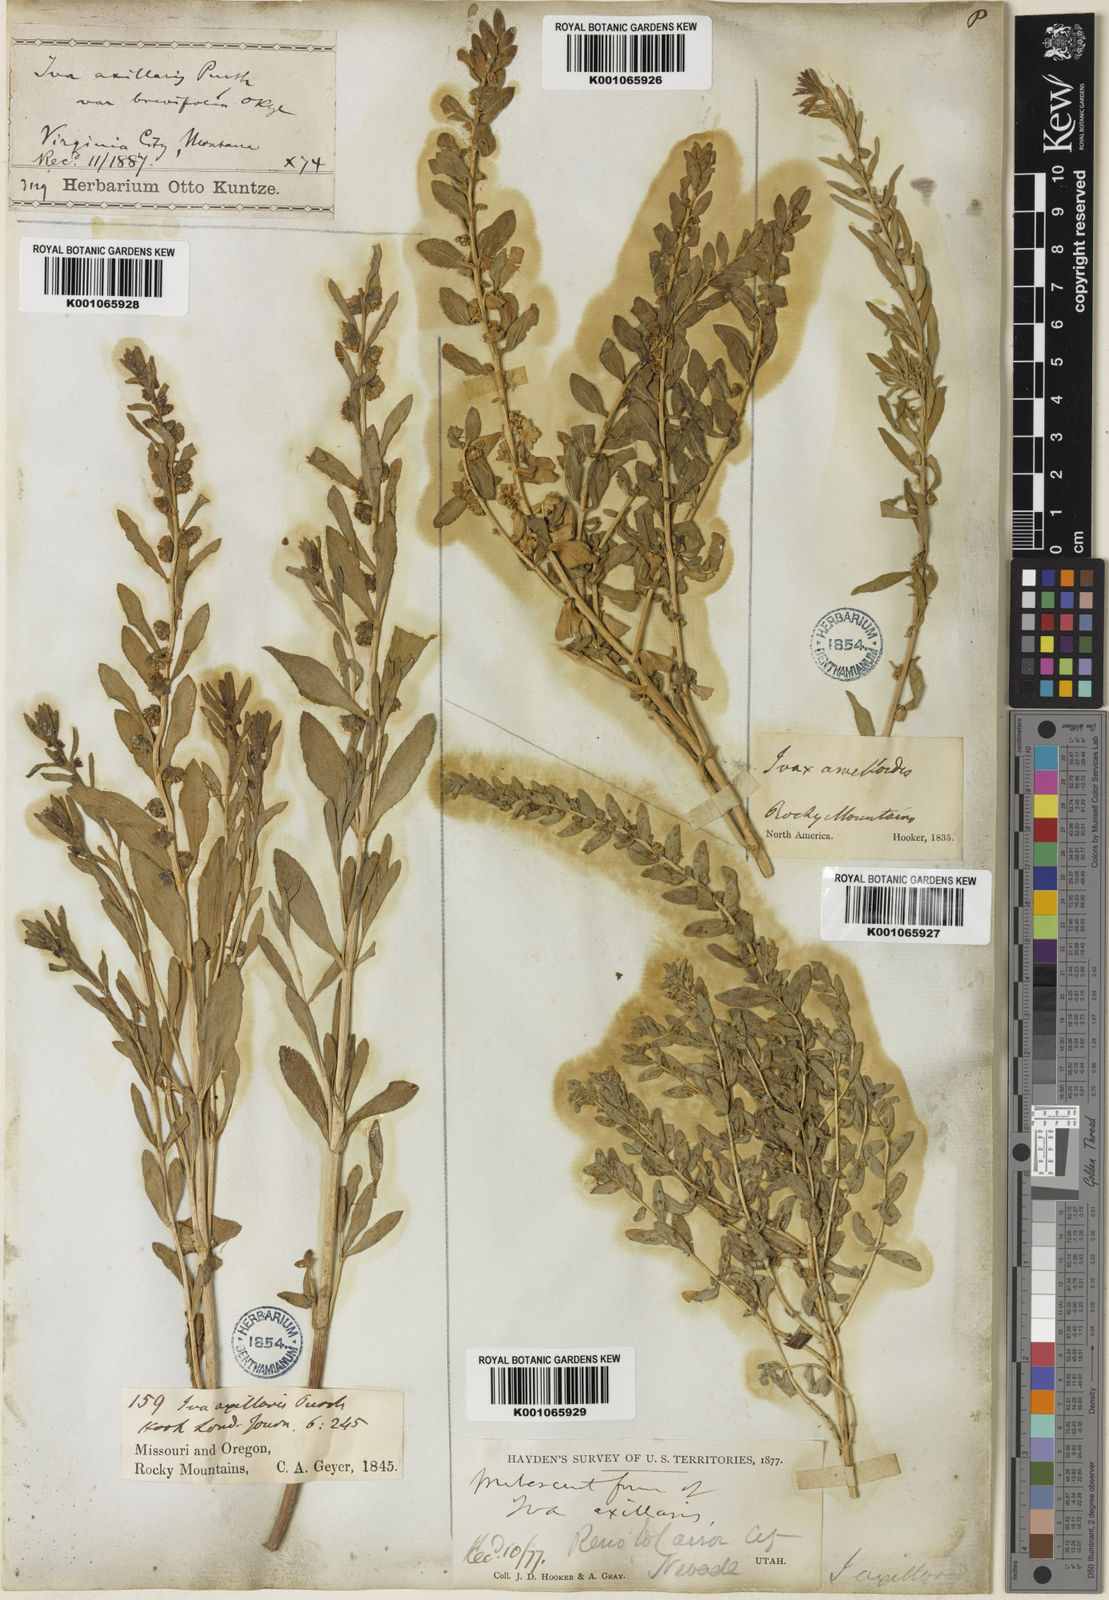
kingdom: Plantae
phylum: Tracheophyta
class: Magnoliopsida
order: Asterales
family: Asteraceae
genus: Iva
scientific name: Iva axillaris
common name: Poverty sumpweed
